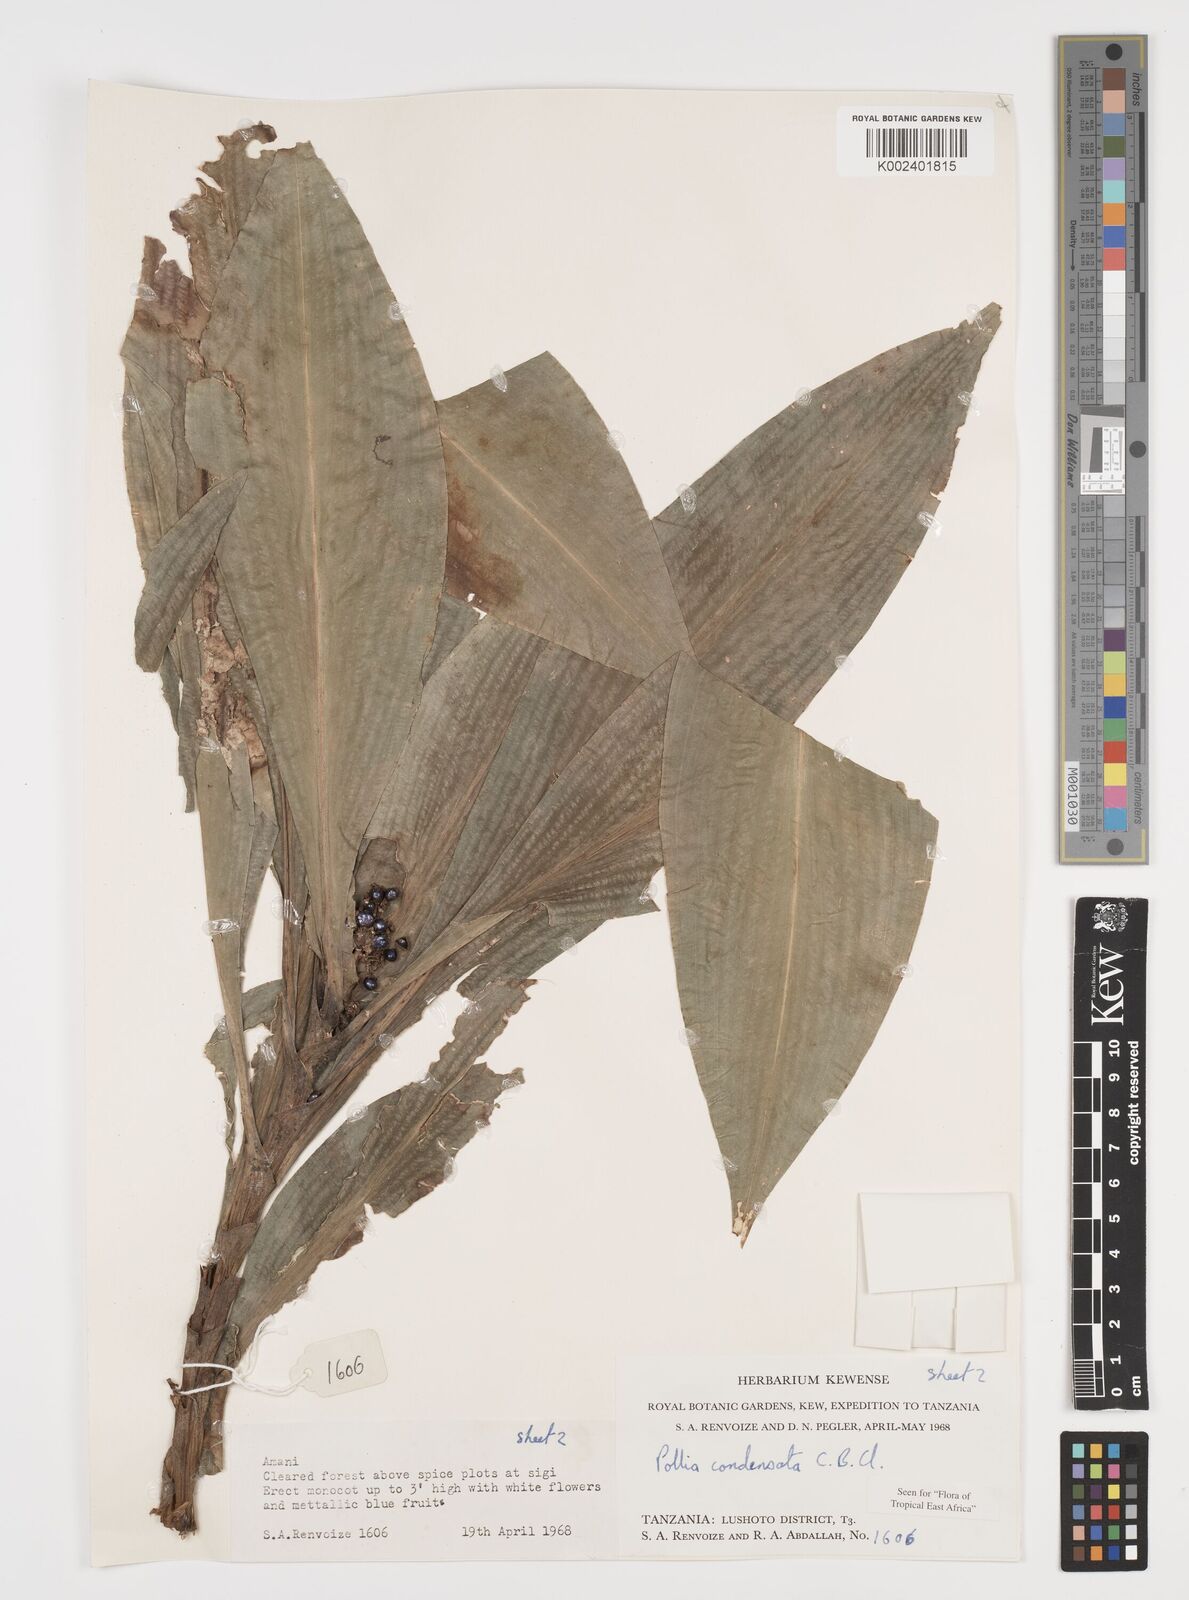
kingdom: Plantae
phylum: Tracheophyta
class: Liliopsida
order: Commelinales
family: Commelinaceae
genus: Pollia
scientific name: Pollia condensata
